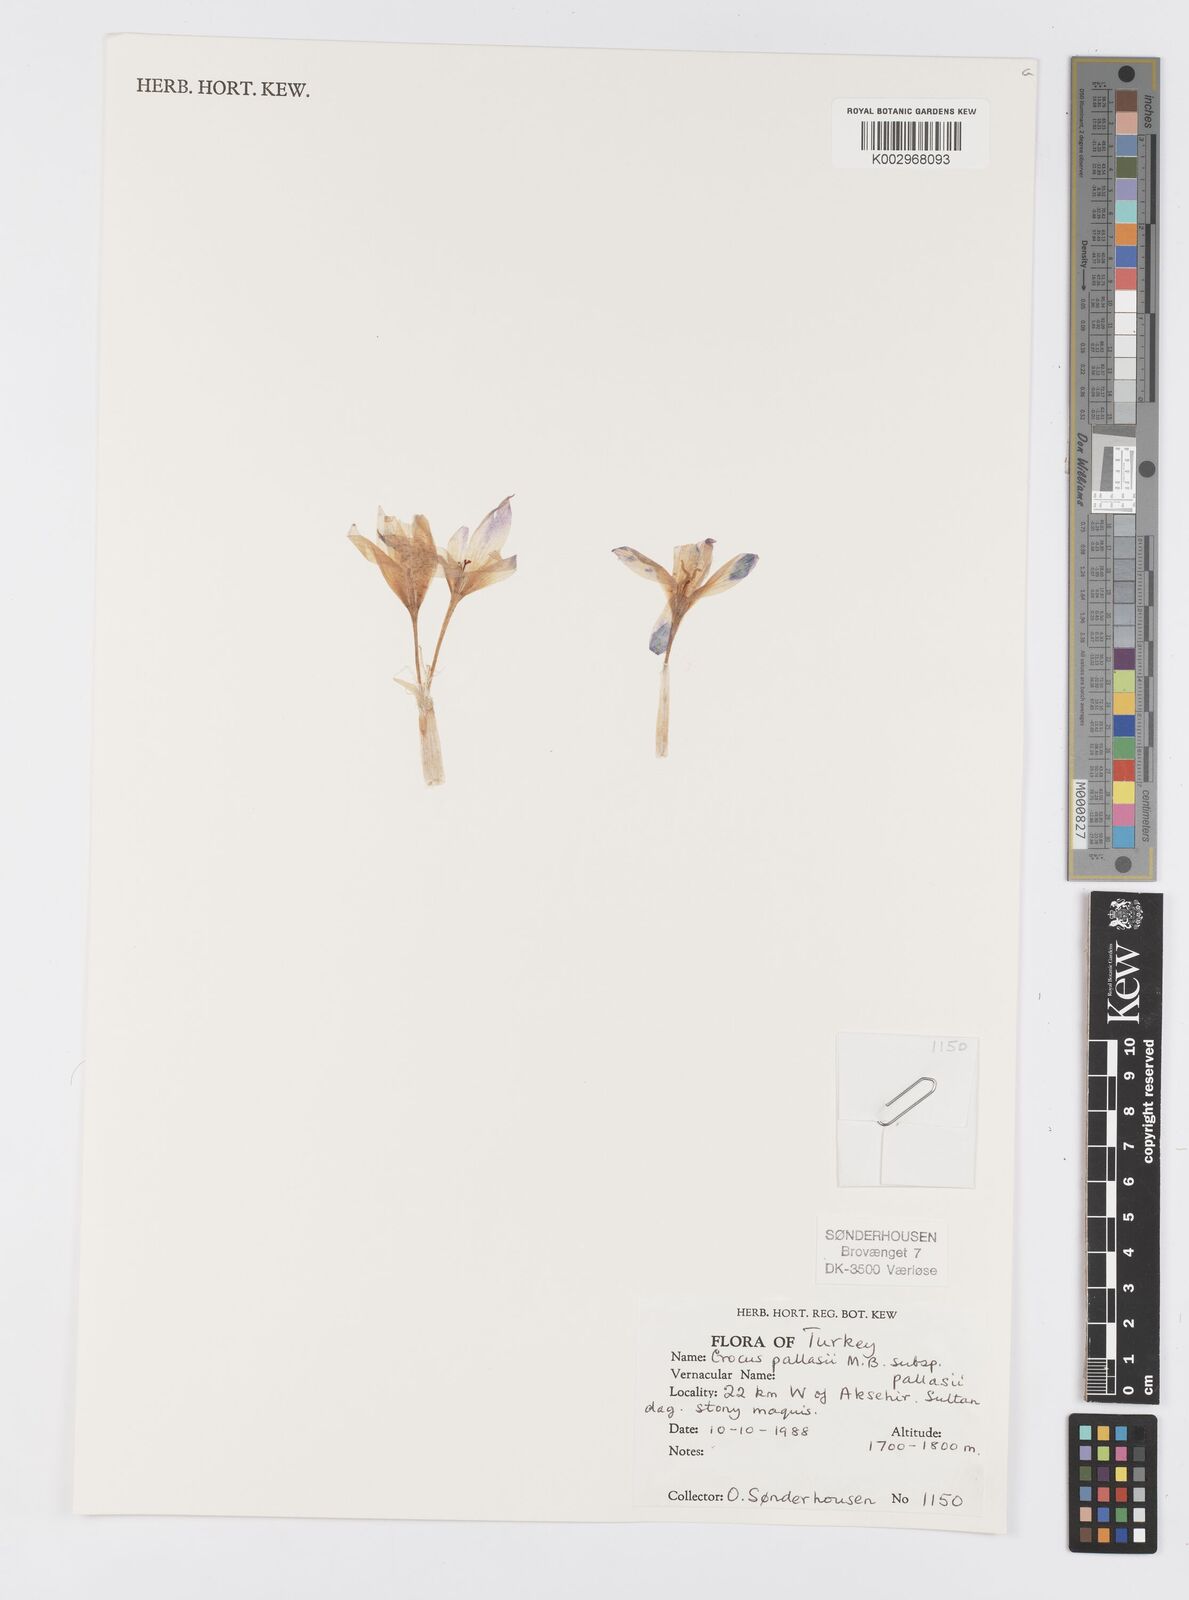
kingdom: Plantae
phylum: Tracheophyta
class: Liliopsida
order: Asparagales
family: Iridaceae
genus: Crocus
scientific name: Crocus
